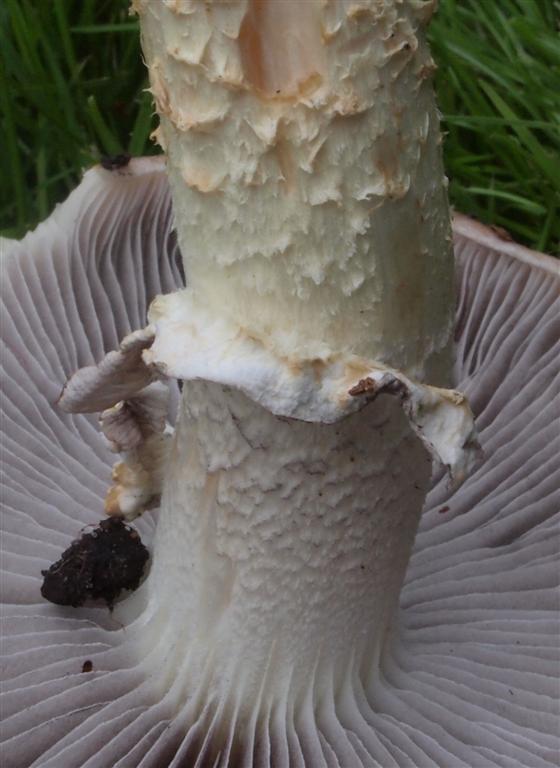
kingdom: Fungi
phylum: Basidiomycota
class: Agaricomycetes
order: Agaricales
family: Strophariaceae
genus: Stropharia
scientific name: Stropharia hornemannii
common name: nordisk bredblad
